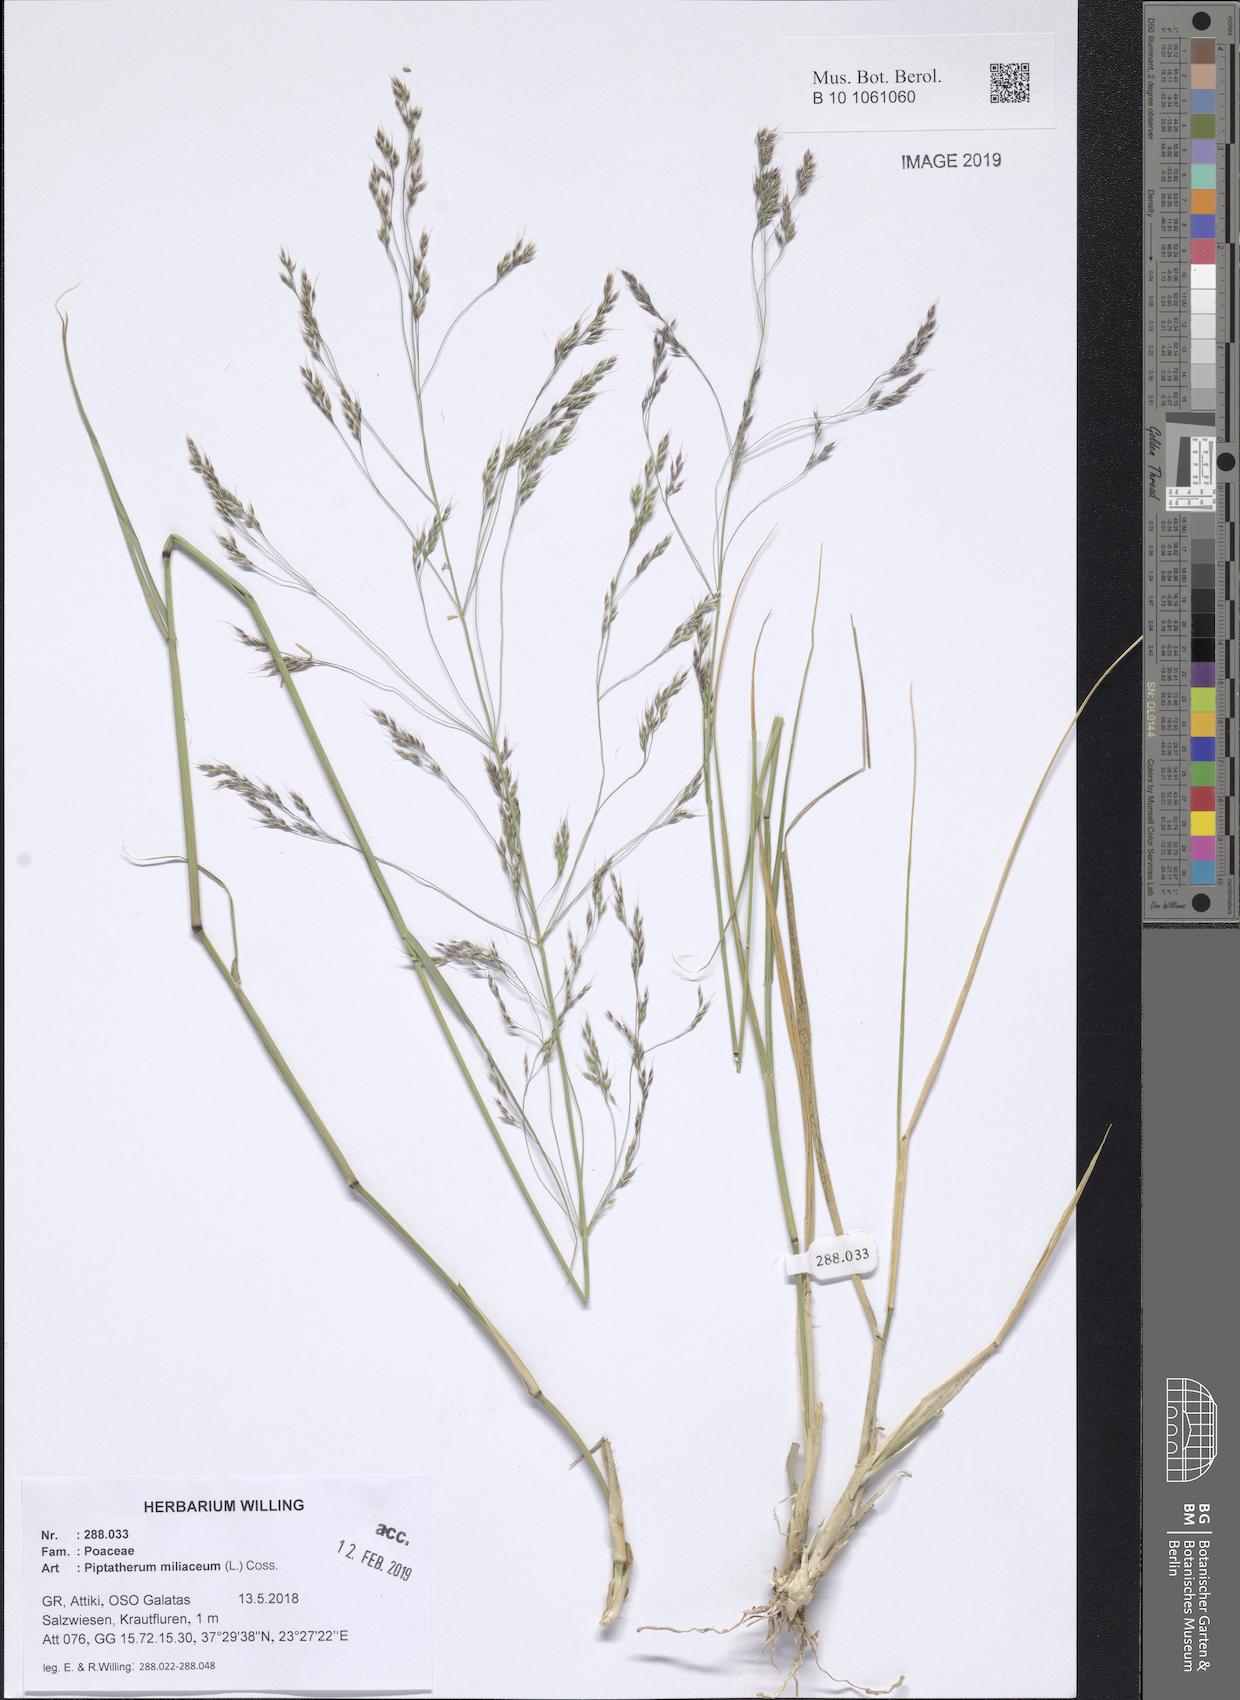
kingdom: Plantae
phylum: Tracheophyta
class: Liliopsida
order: Poales
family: Poaceae
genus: Oloptum
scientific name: Oloptum miliaceum
